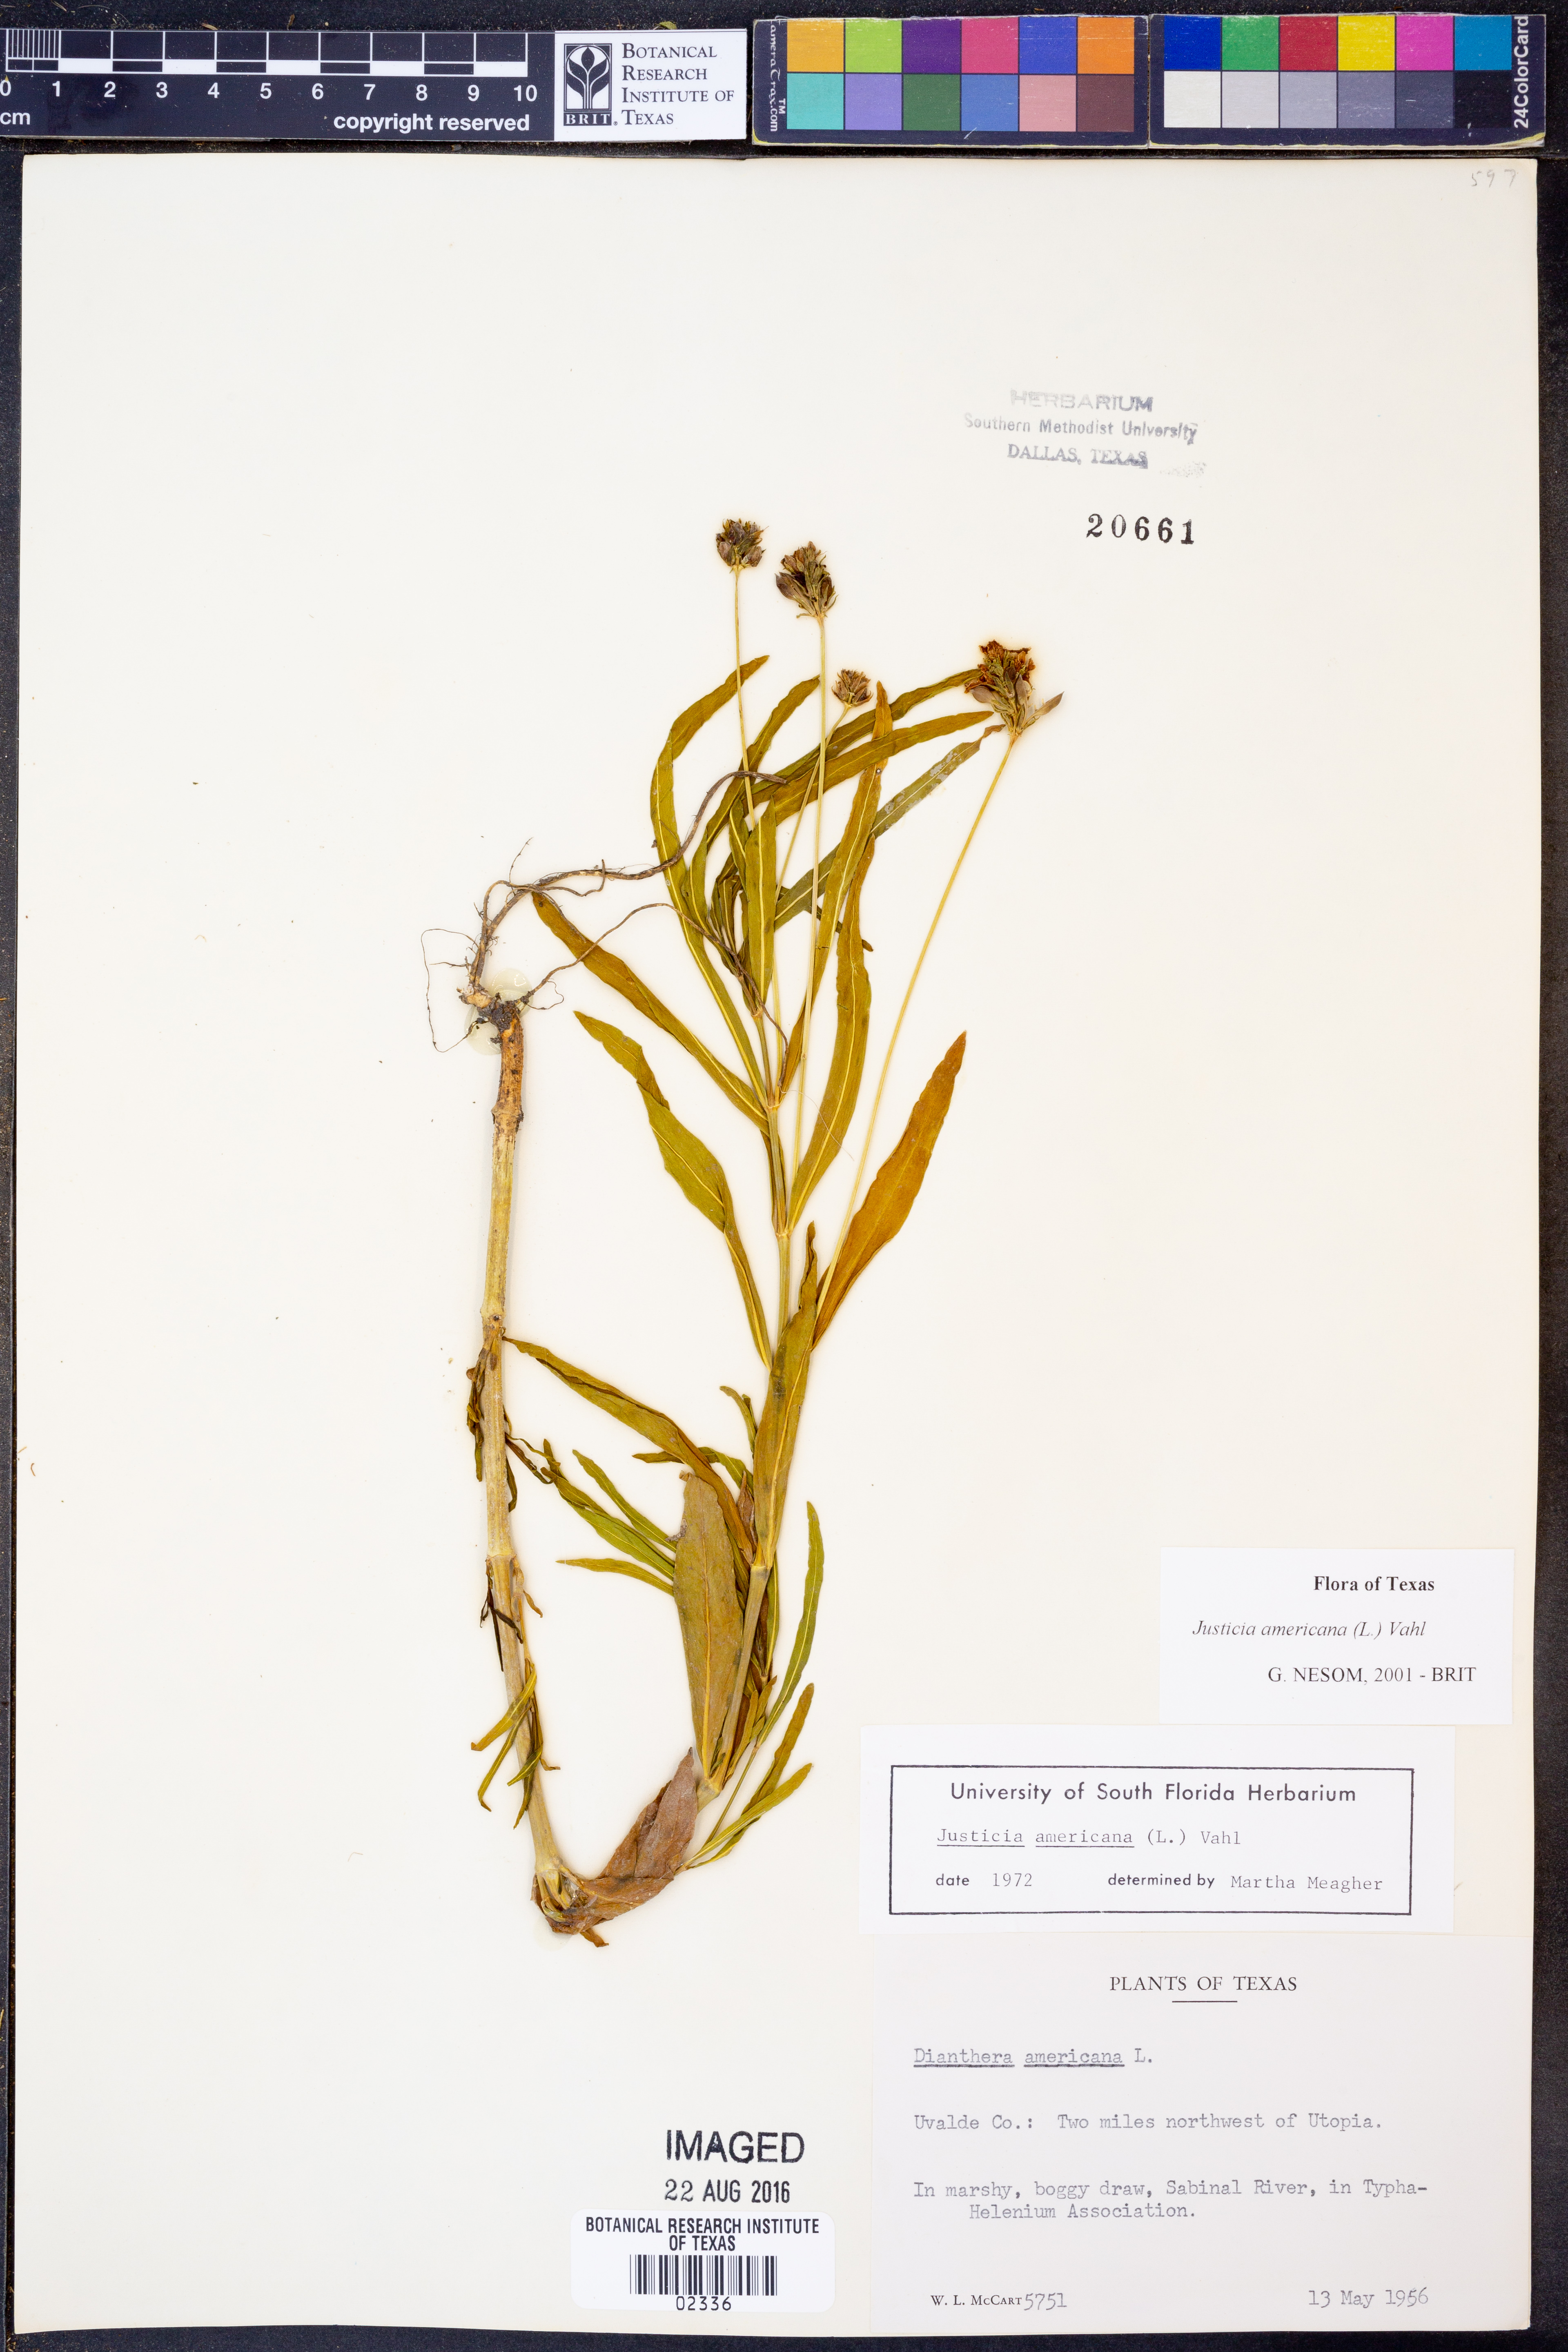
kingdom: Plantae
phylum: Tracheophyta
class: Magnoliopsida
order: Lamiales
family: Acanthaceae
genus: Dianthera
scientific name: Dianthera americana
